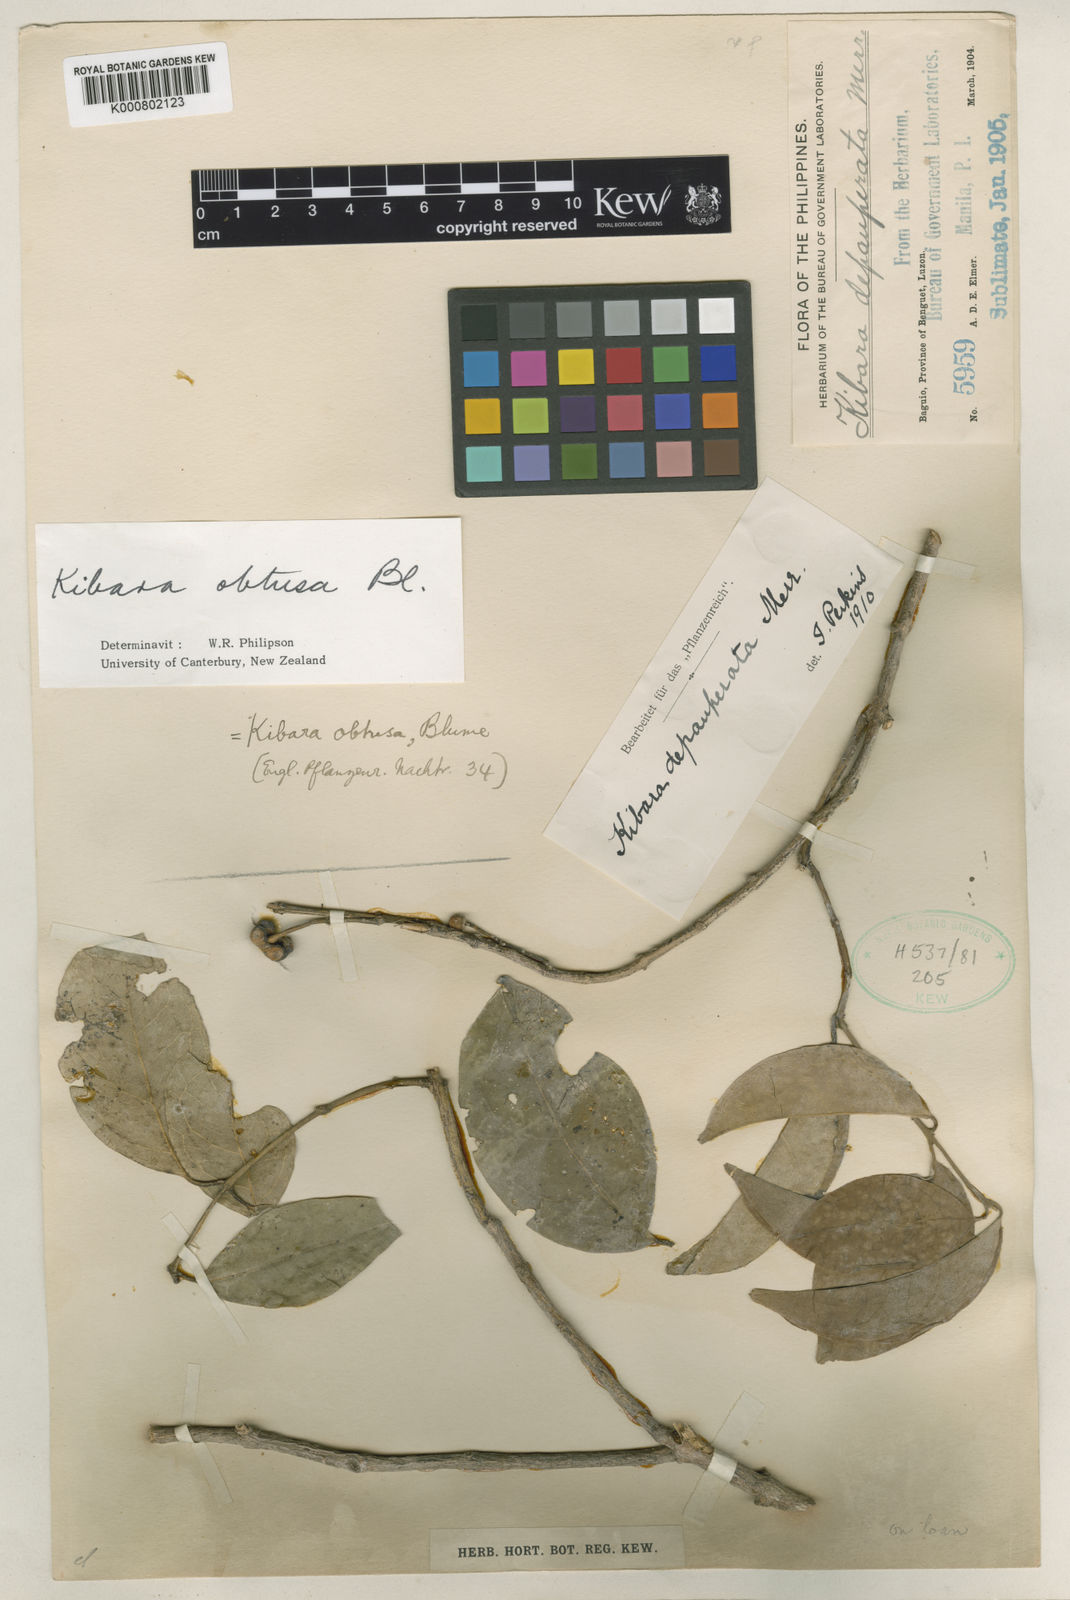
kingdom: Plantae
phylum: Tracheophyta
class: Magnoliopsida
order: Laurales
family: Monimiaceae
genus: Kibara
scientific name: Kibara obtusa
